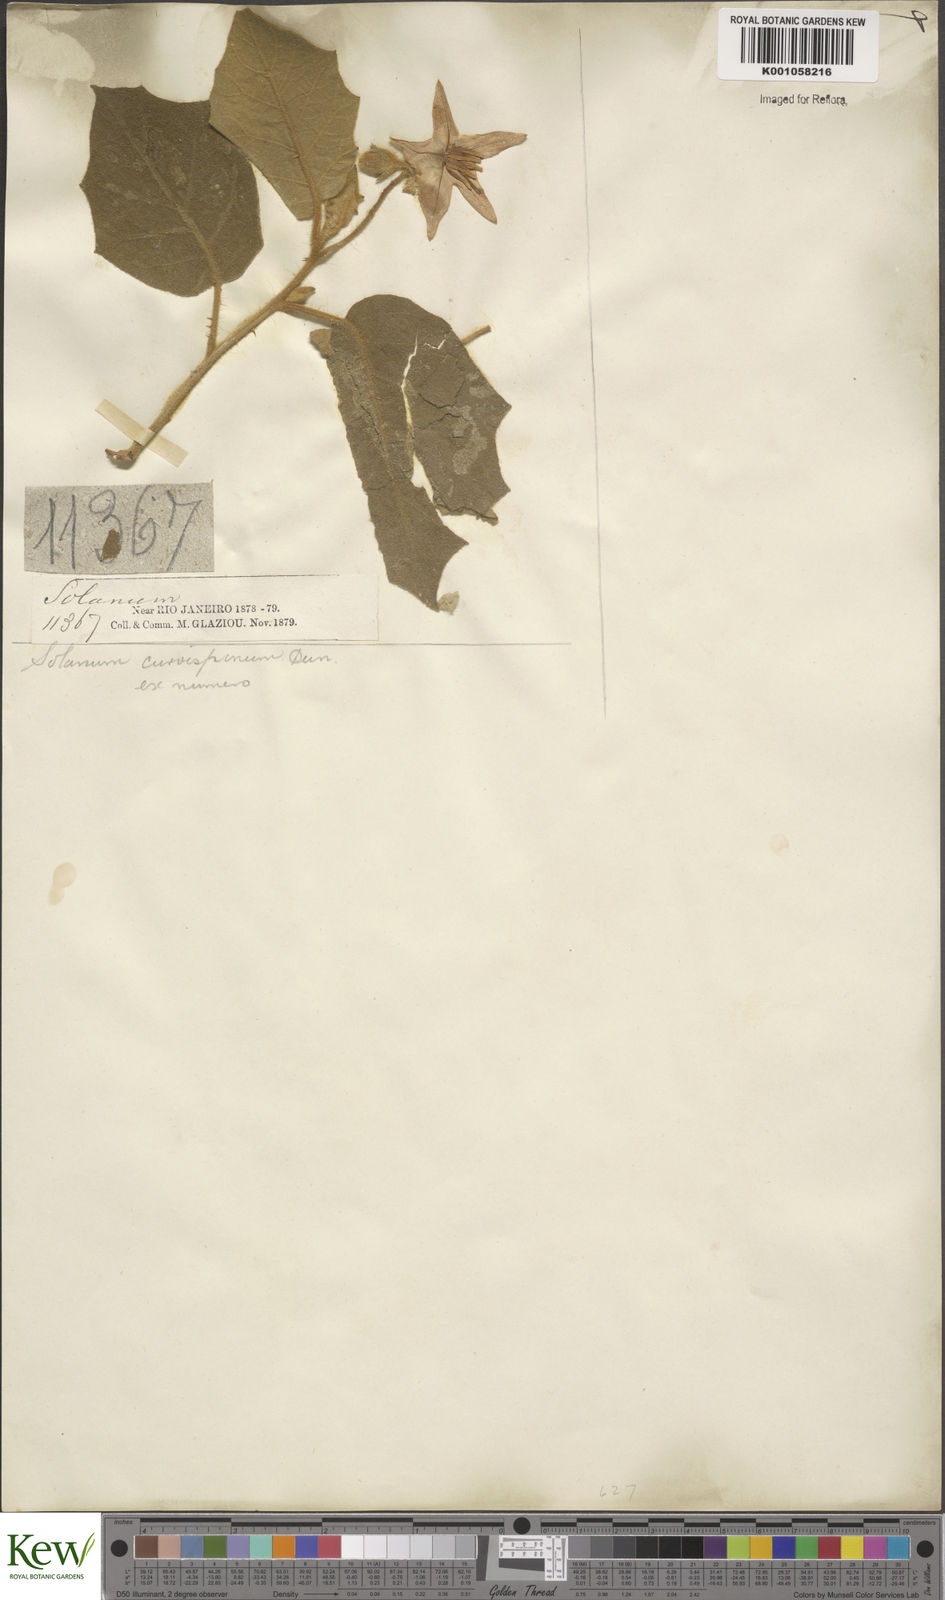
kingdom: Plantae
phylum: Tracheophyta
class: Magnoliopsida
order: Solanales
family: Solanaceae
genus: Solanum
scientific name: Solanum
